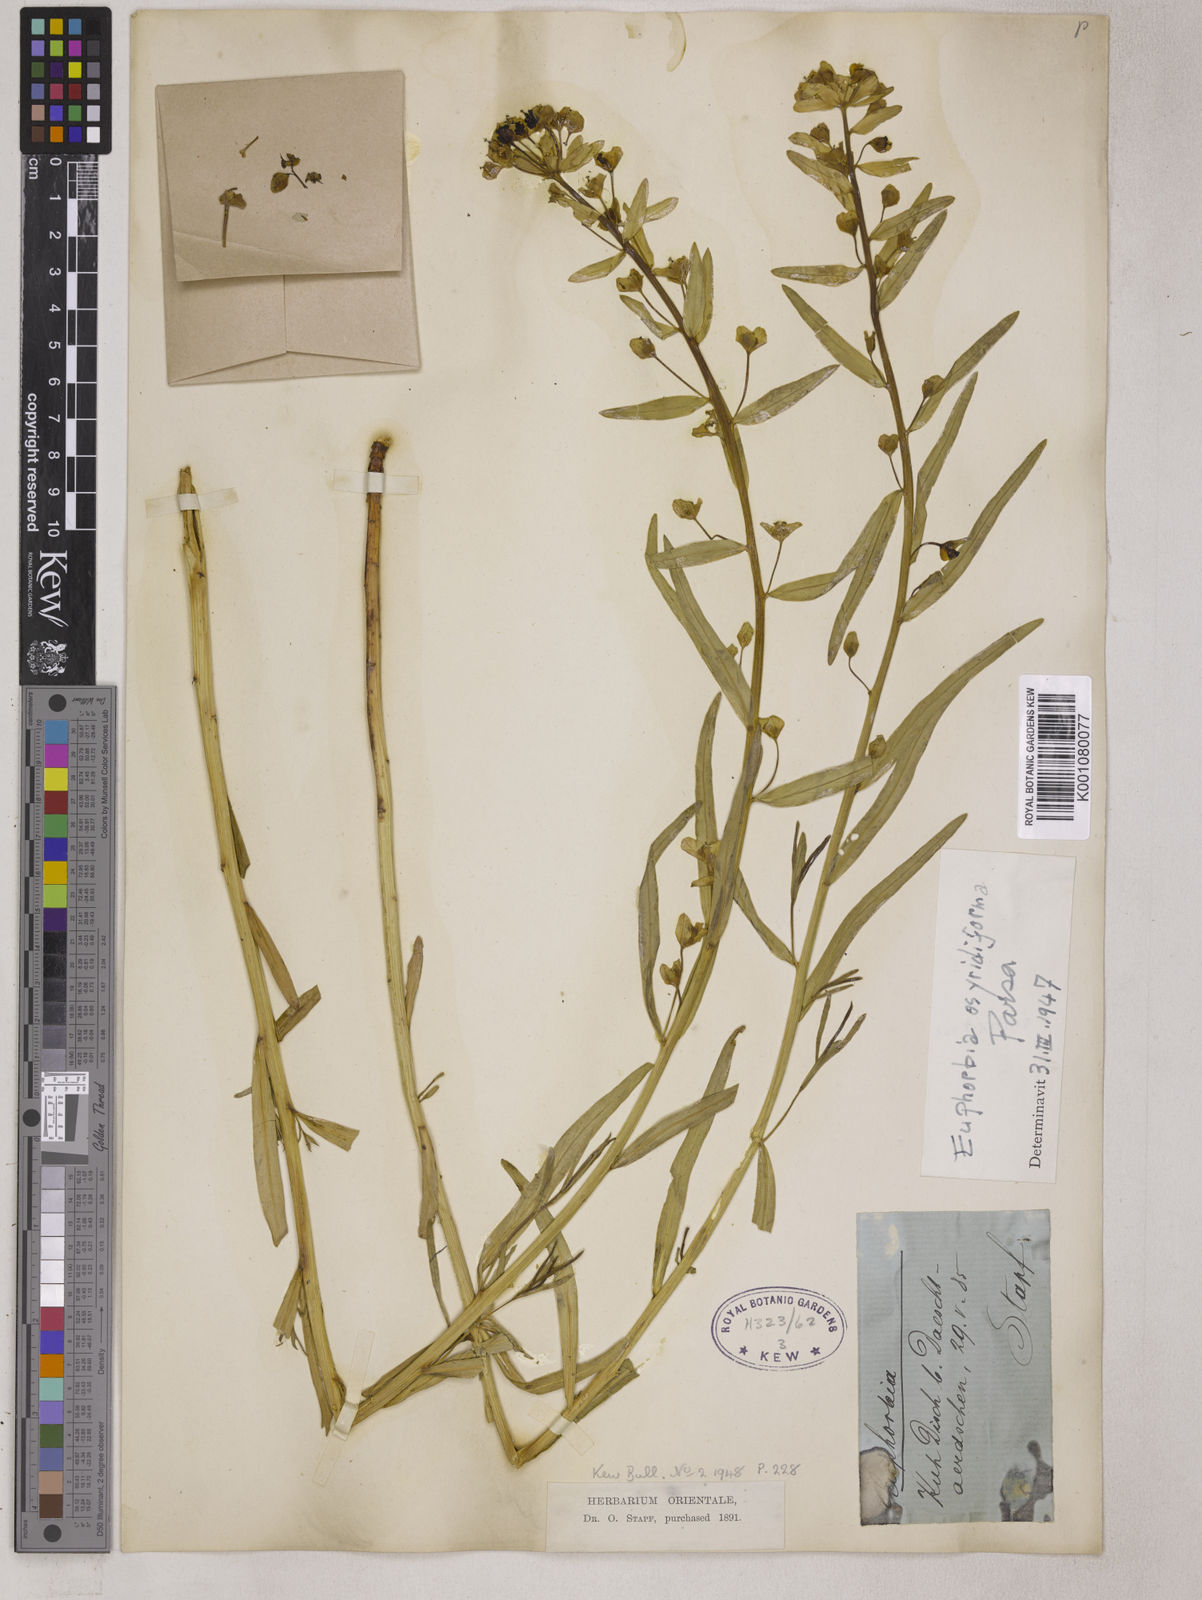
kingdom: Plantae
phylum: Tracheophyta
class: Magnoliopsida
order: Malpighiales
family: Euphorbiaceae
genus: Euphorbia
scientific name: Euphorbia osyridiformis
